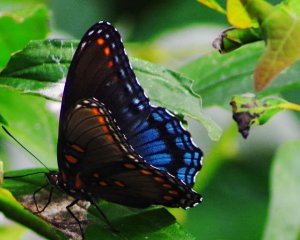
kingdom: Animalia
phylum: Arthropoda
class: Insecta
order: Lepidoptera
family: Nymphalidae
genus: Limenitis
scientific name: Limenitis astyanax
